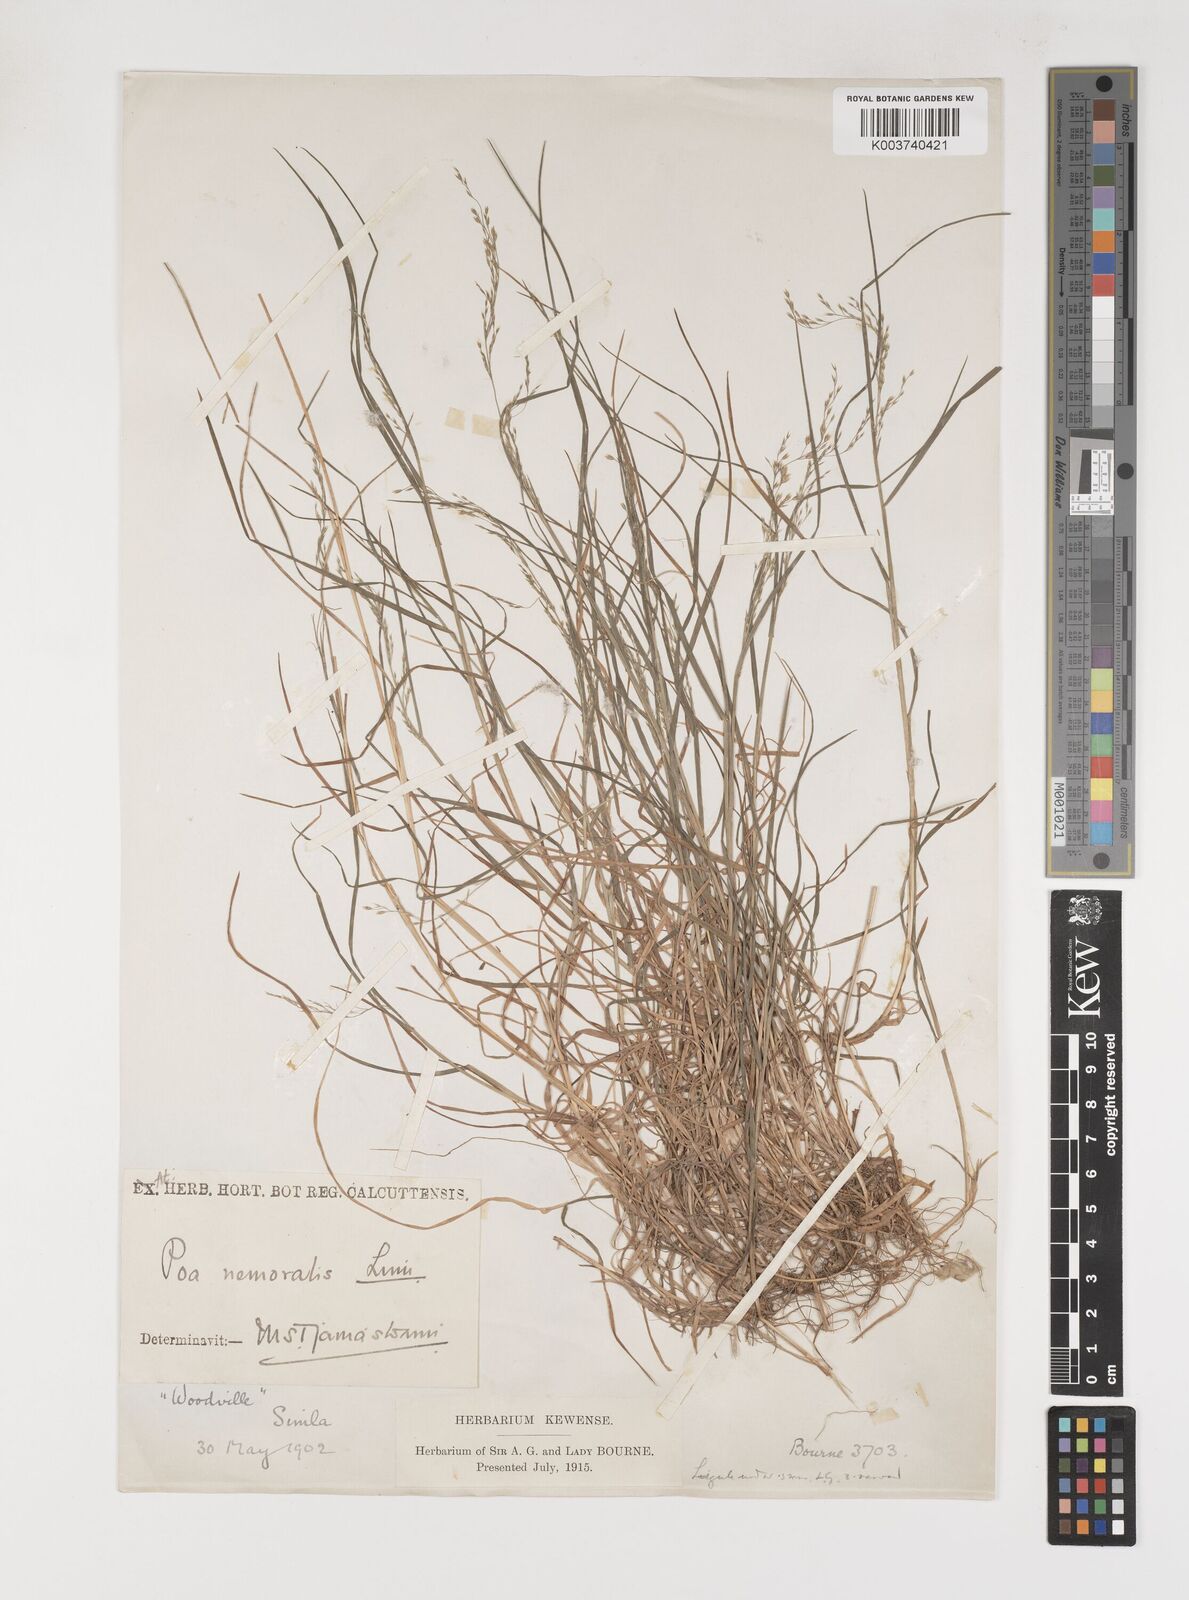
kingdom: Plantae
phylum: Tracheophyta
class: Liliopsida
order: Poales
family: Poaceae
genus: Poa
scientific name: Poa nemoralis
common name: Wood bluegrass
